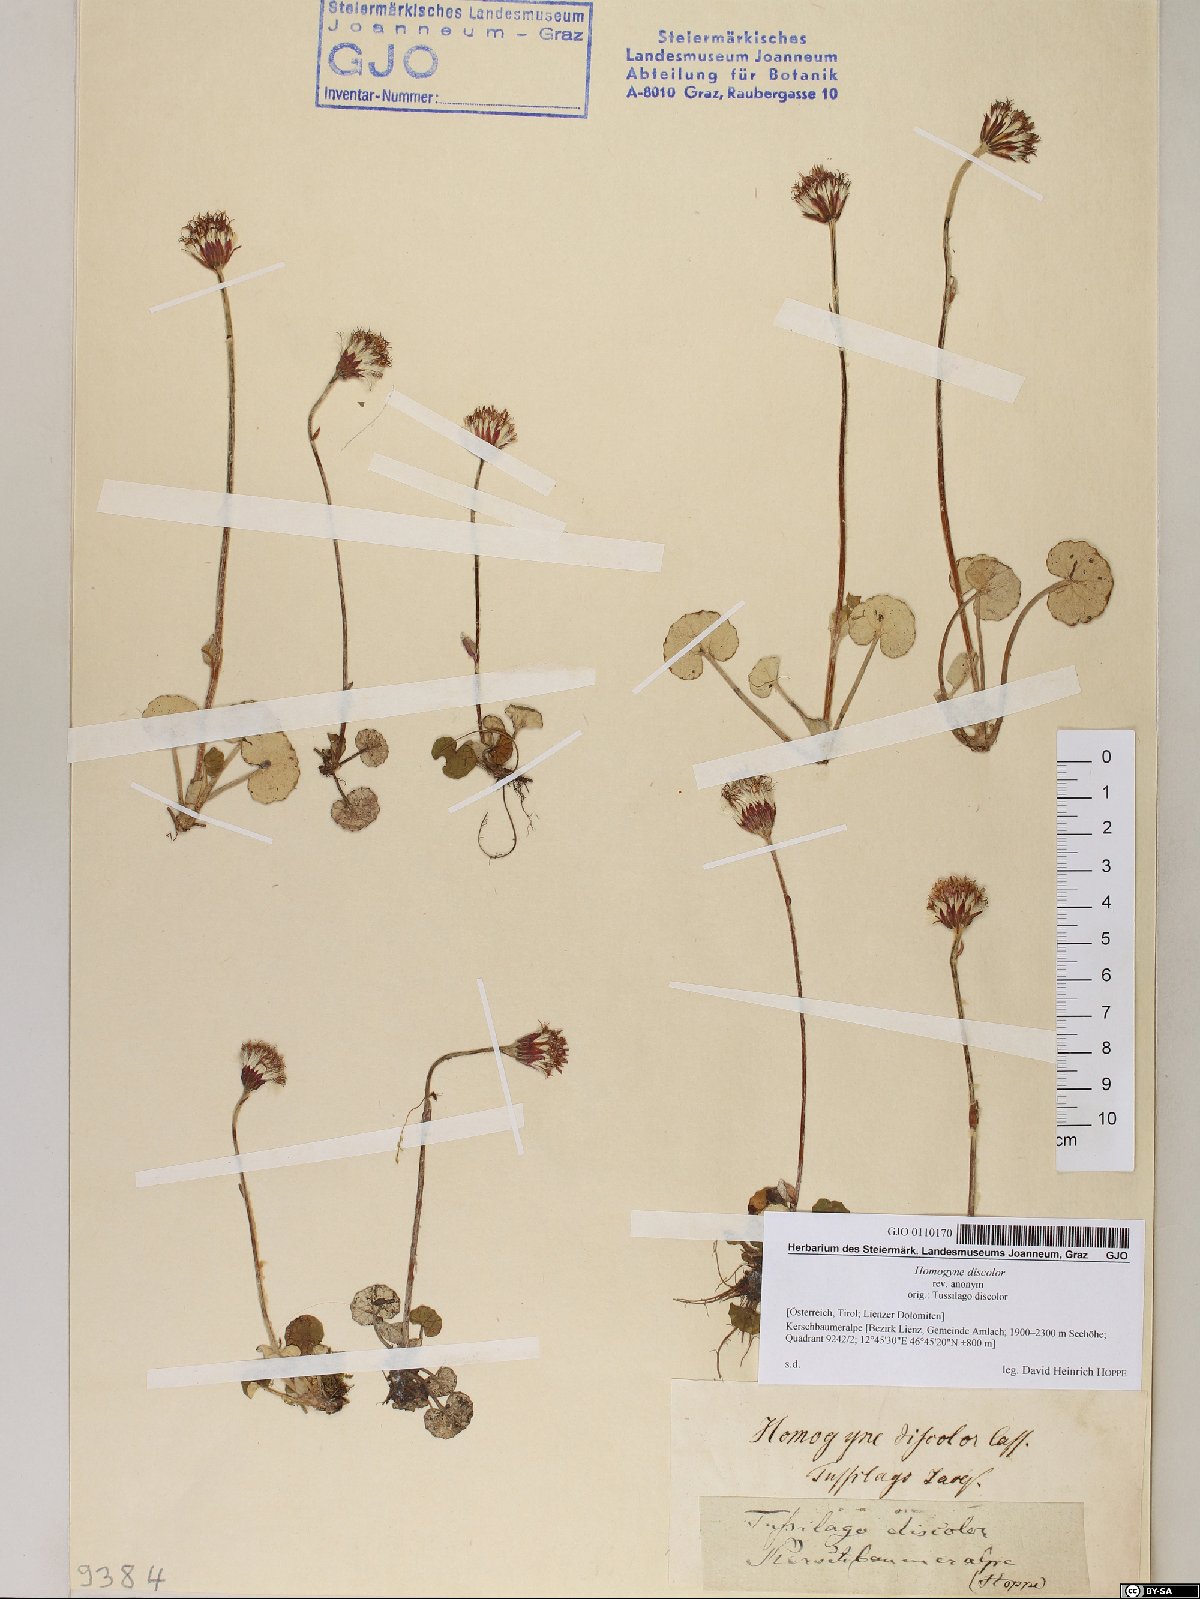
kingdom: Plantae
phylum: Tracheophyta
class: Magnoliopsida
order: Asterales
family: Asteraceae
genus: Homogyne
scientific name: Homogyne discolor
